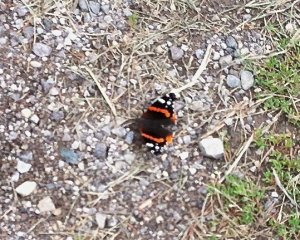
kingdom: Animalia
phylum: Arthropoda
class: Insecta
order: Lepidoptera
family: Nymphalidae
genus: Vanessa
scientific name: Vanessa atalanta
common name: Red Admiral
